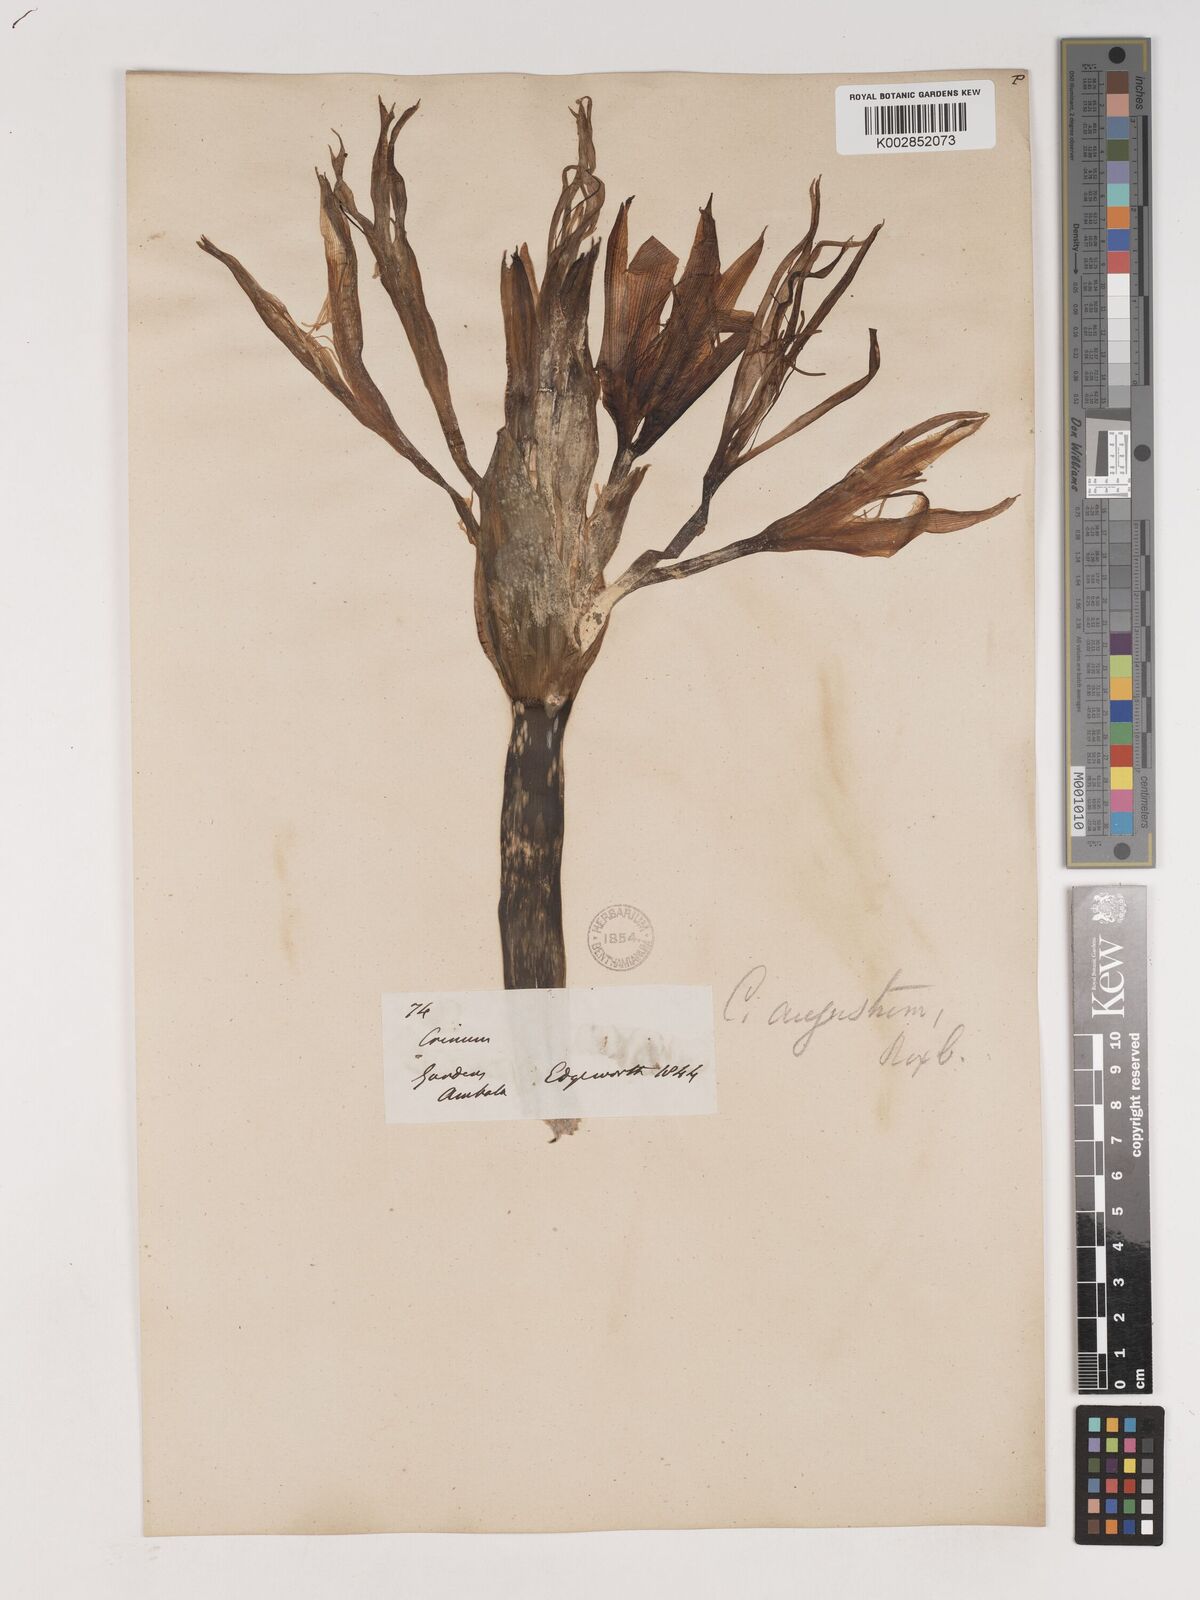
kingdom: Plantae
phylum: Tracheophyta
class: Liliopsida
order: Asparagales
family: Amaryllidaceae
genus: Crinum
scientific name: Crinum amabile
